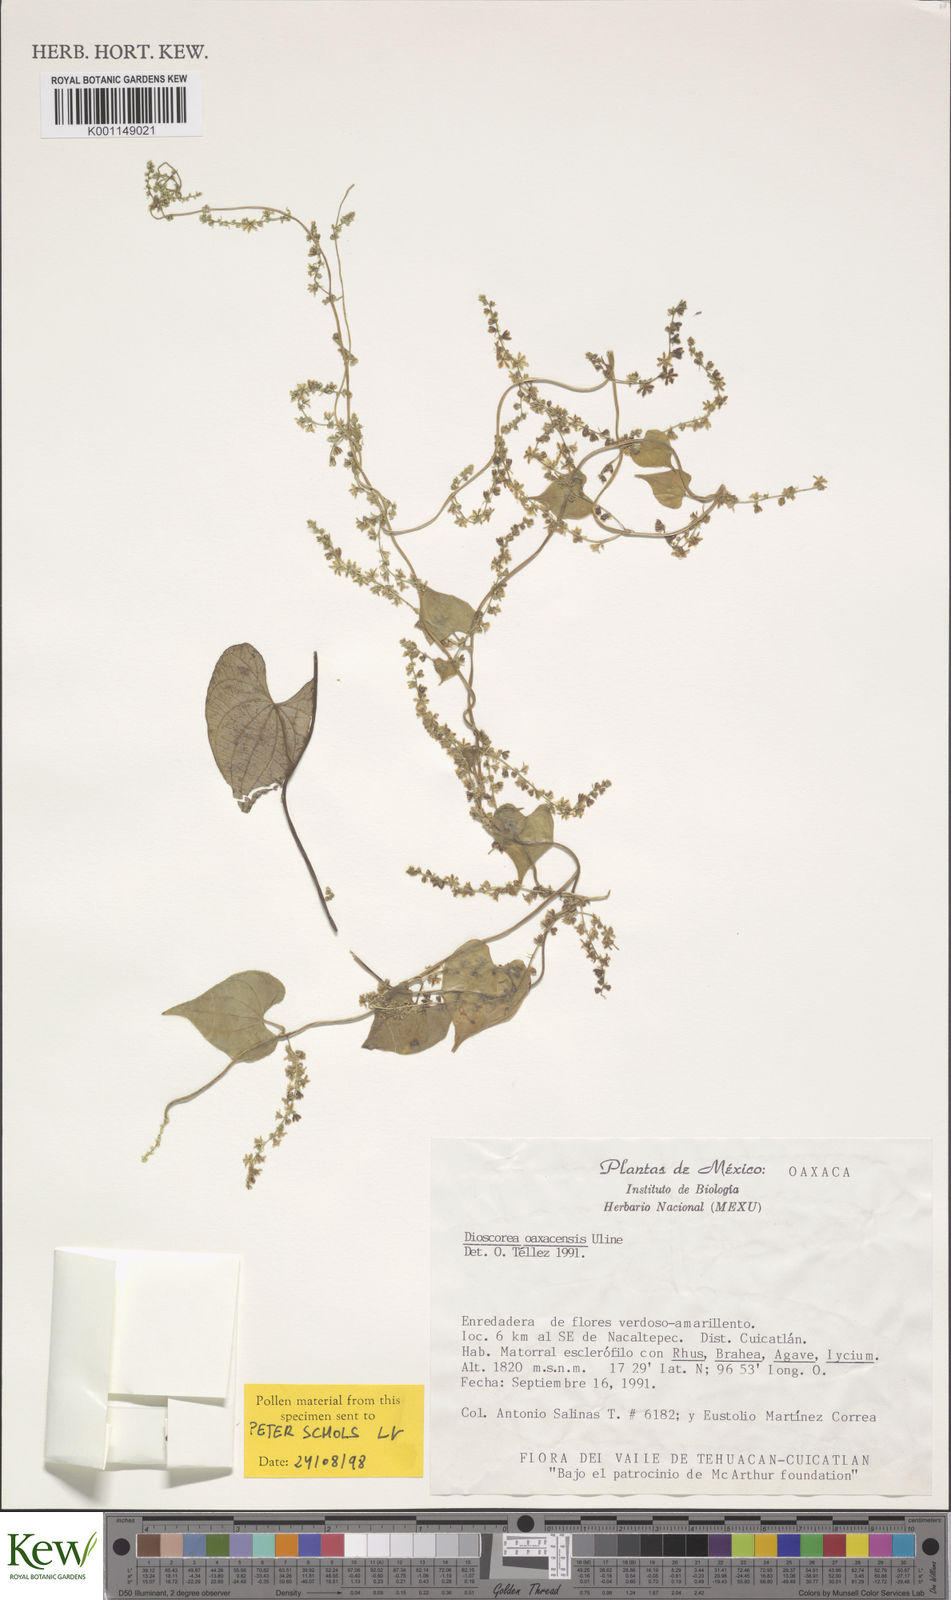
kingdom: Plantae
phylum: Tracheophyta
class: Liliopsida
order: Dioscoreales
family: Dioscoreaceae
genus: Dioscorea
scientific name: Dioscorea oaxacensis
